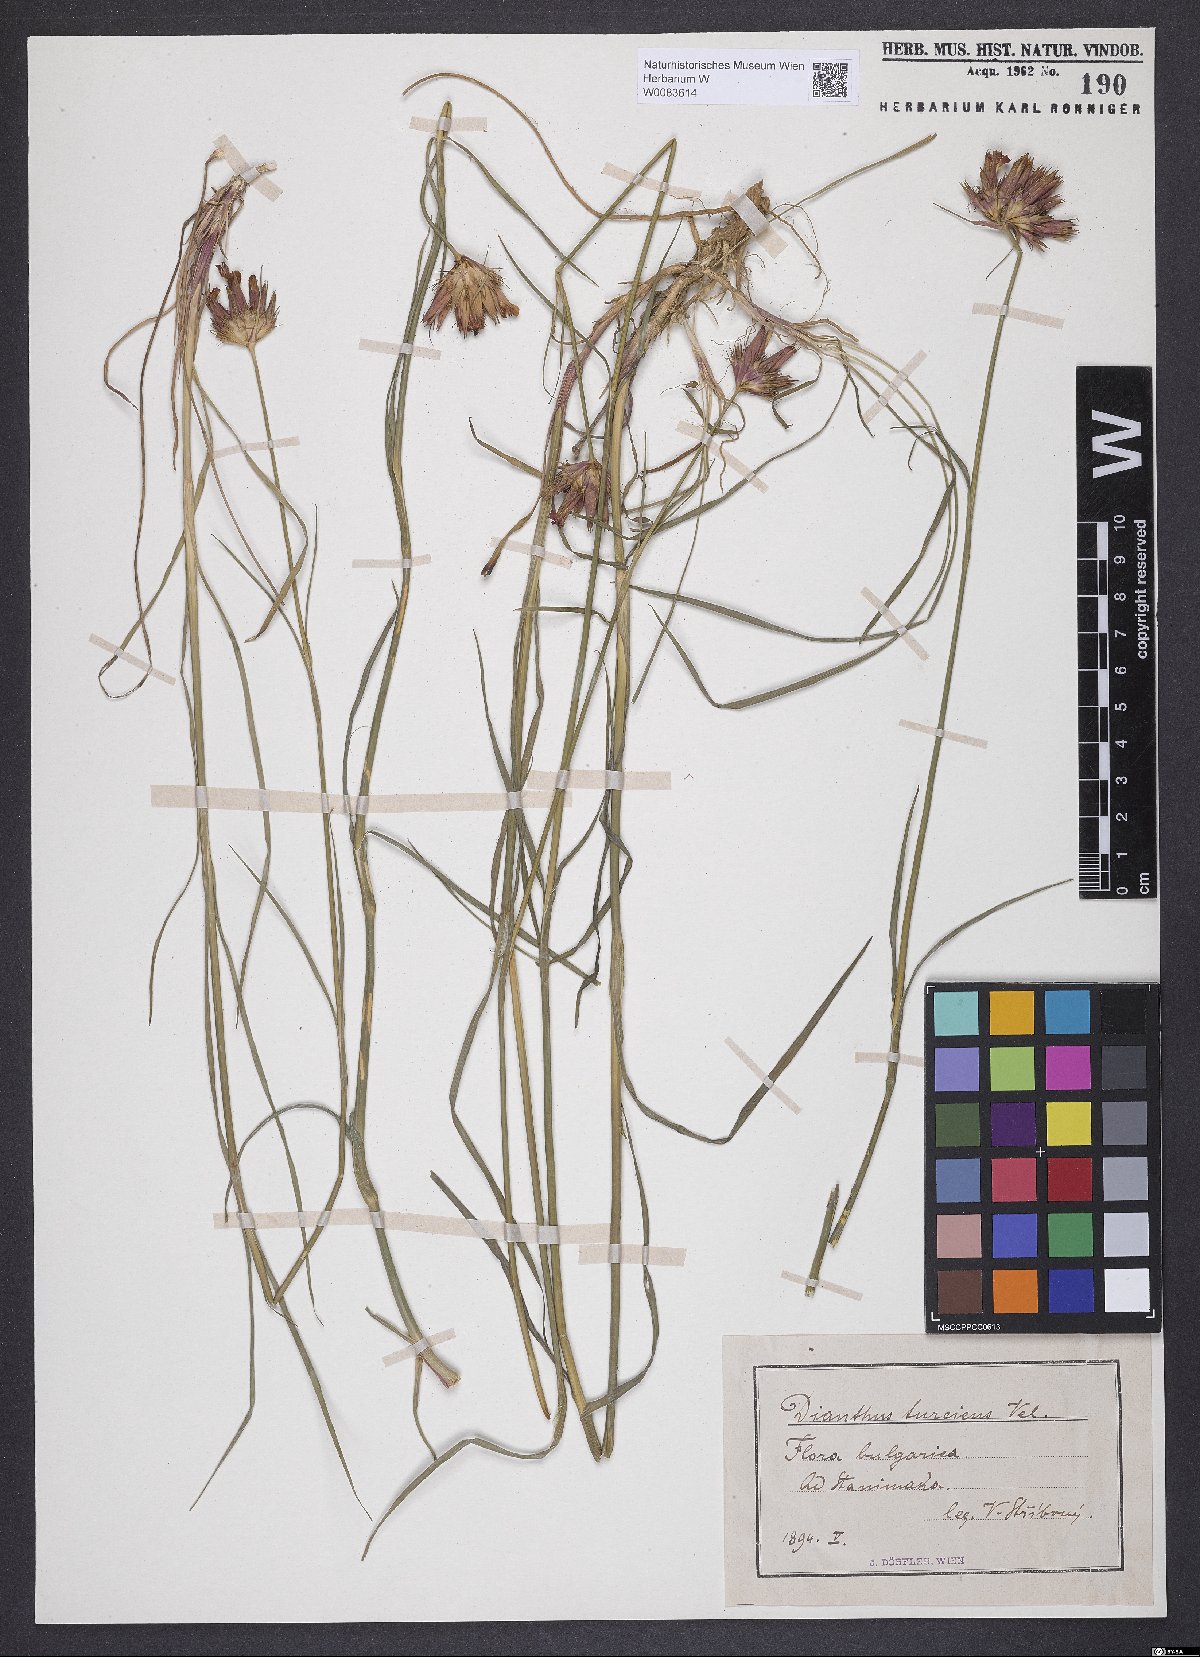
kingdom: Plantae
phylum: Tracheophyta
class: Magnoliopsida
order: Caryophyllales
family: Caryophyllaceae
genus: Dianthus
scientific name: Dianthus cruentus
